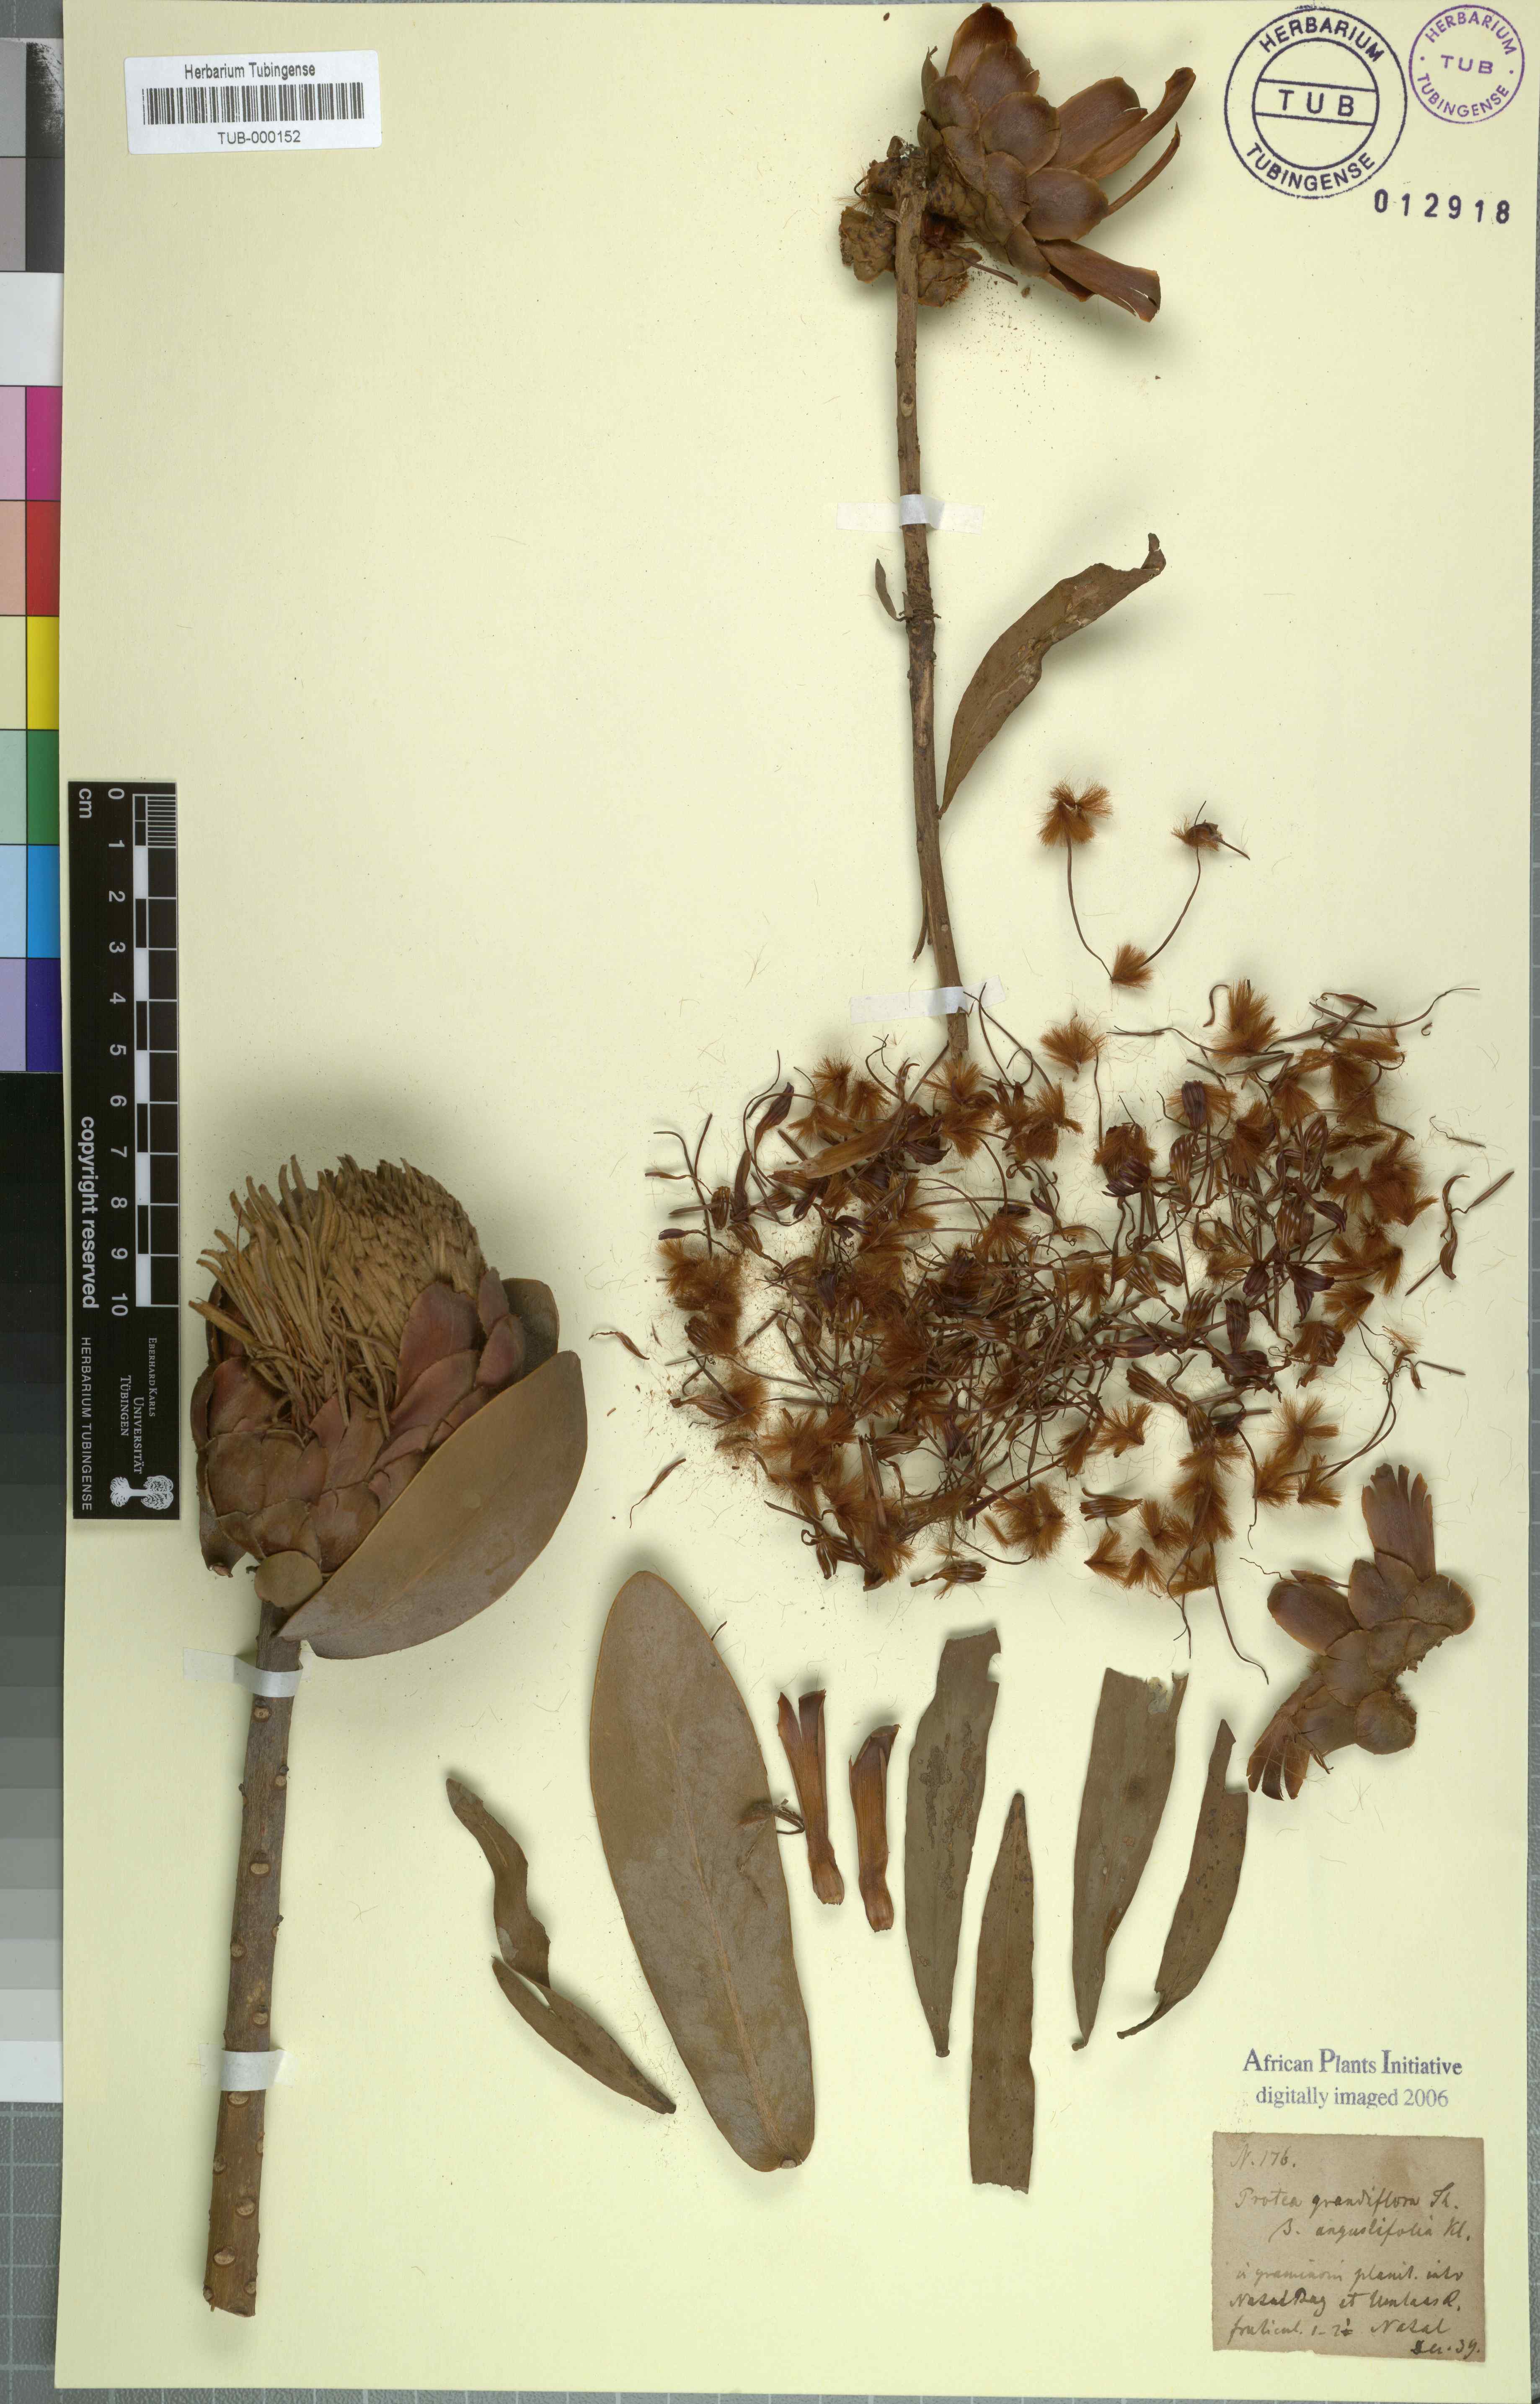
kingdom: Plantae
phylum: Tracheophyta
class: Magnoliopsida
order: Proteales
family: Proteaceae
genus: Protea
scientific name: Protea nitida
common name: Tree protea
